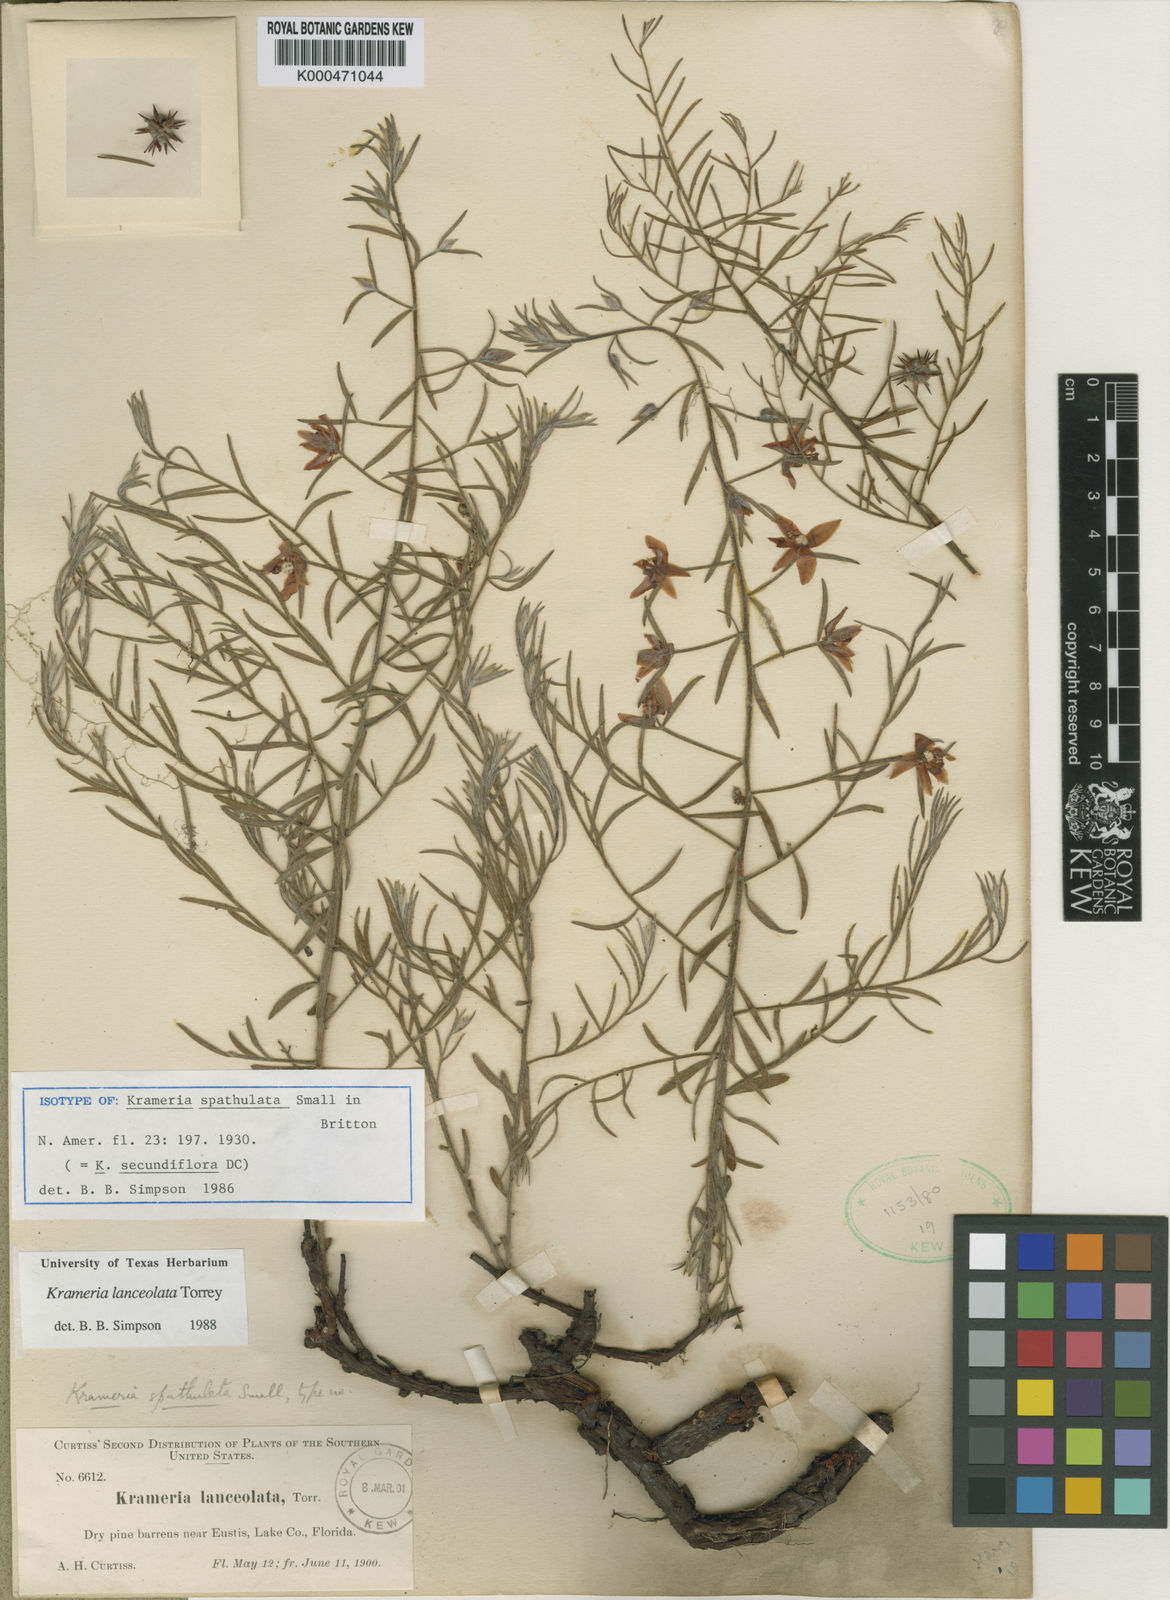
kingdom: Plantae
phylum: Tracheophyta
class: Magnoliopsida
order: Zygophyllales
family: Krameriaceae
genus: Krameria
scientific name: Krameria lanceolata
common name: Ratany
